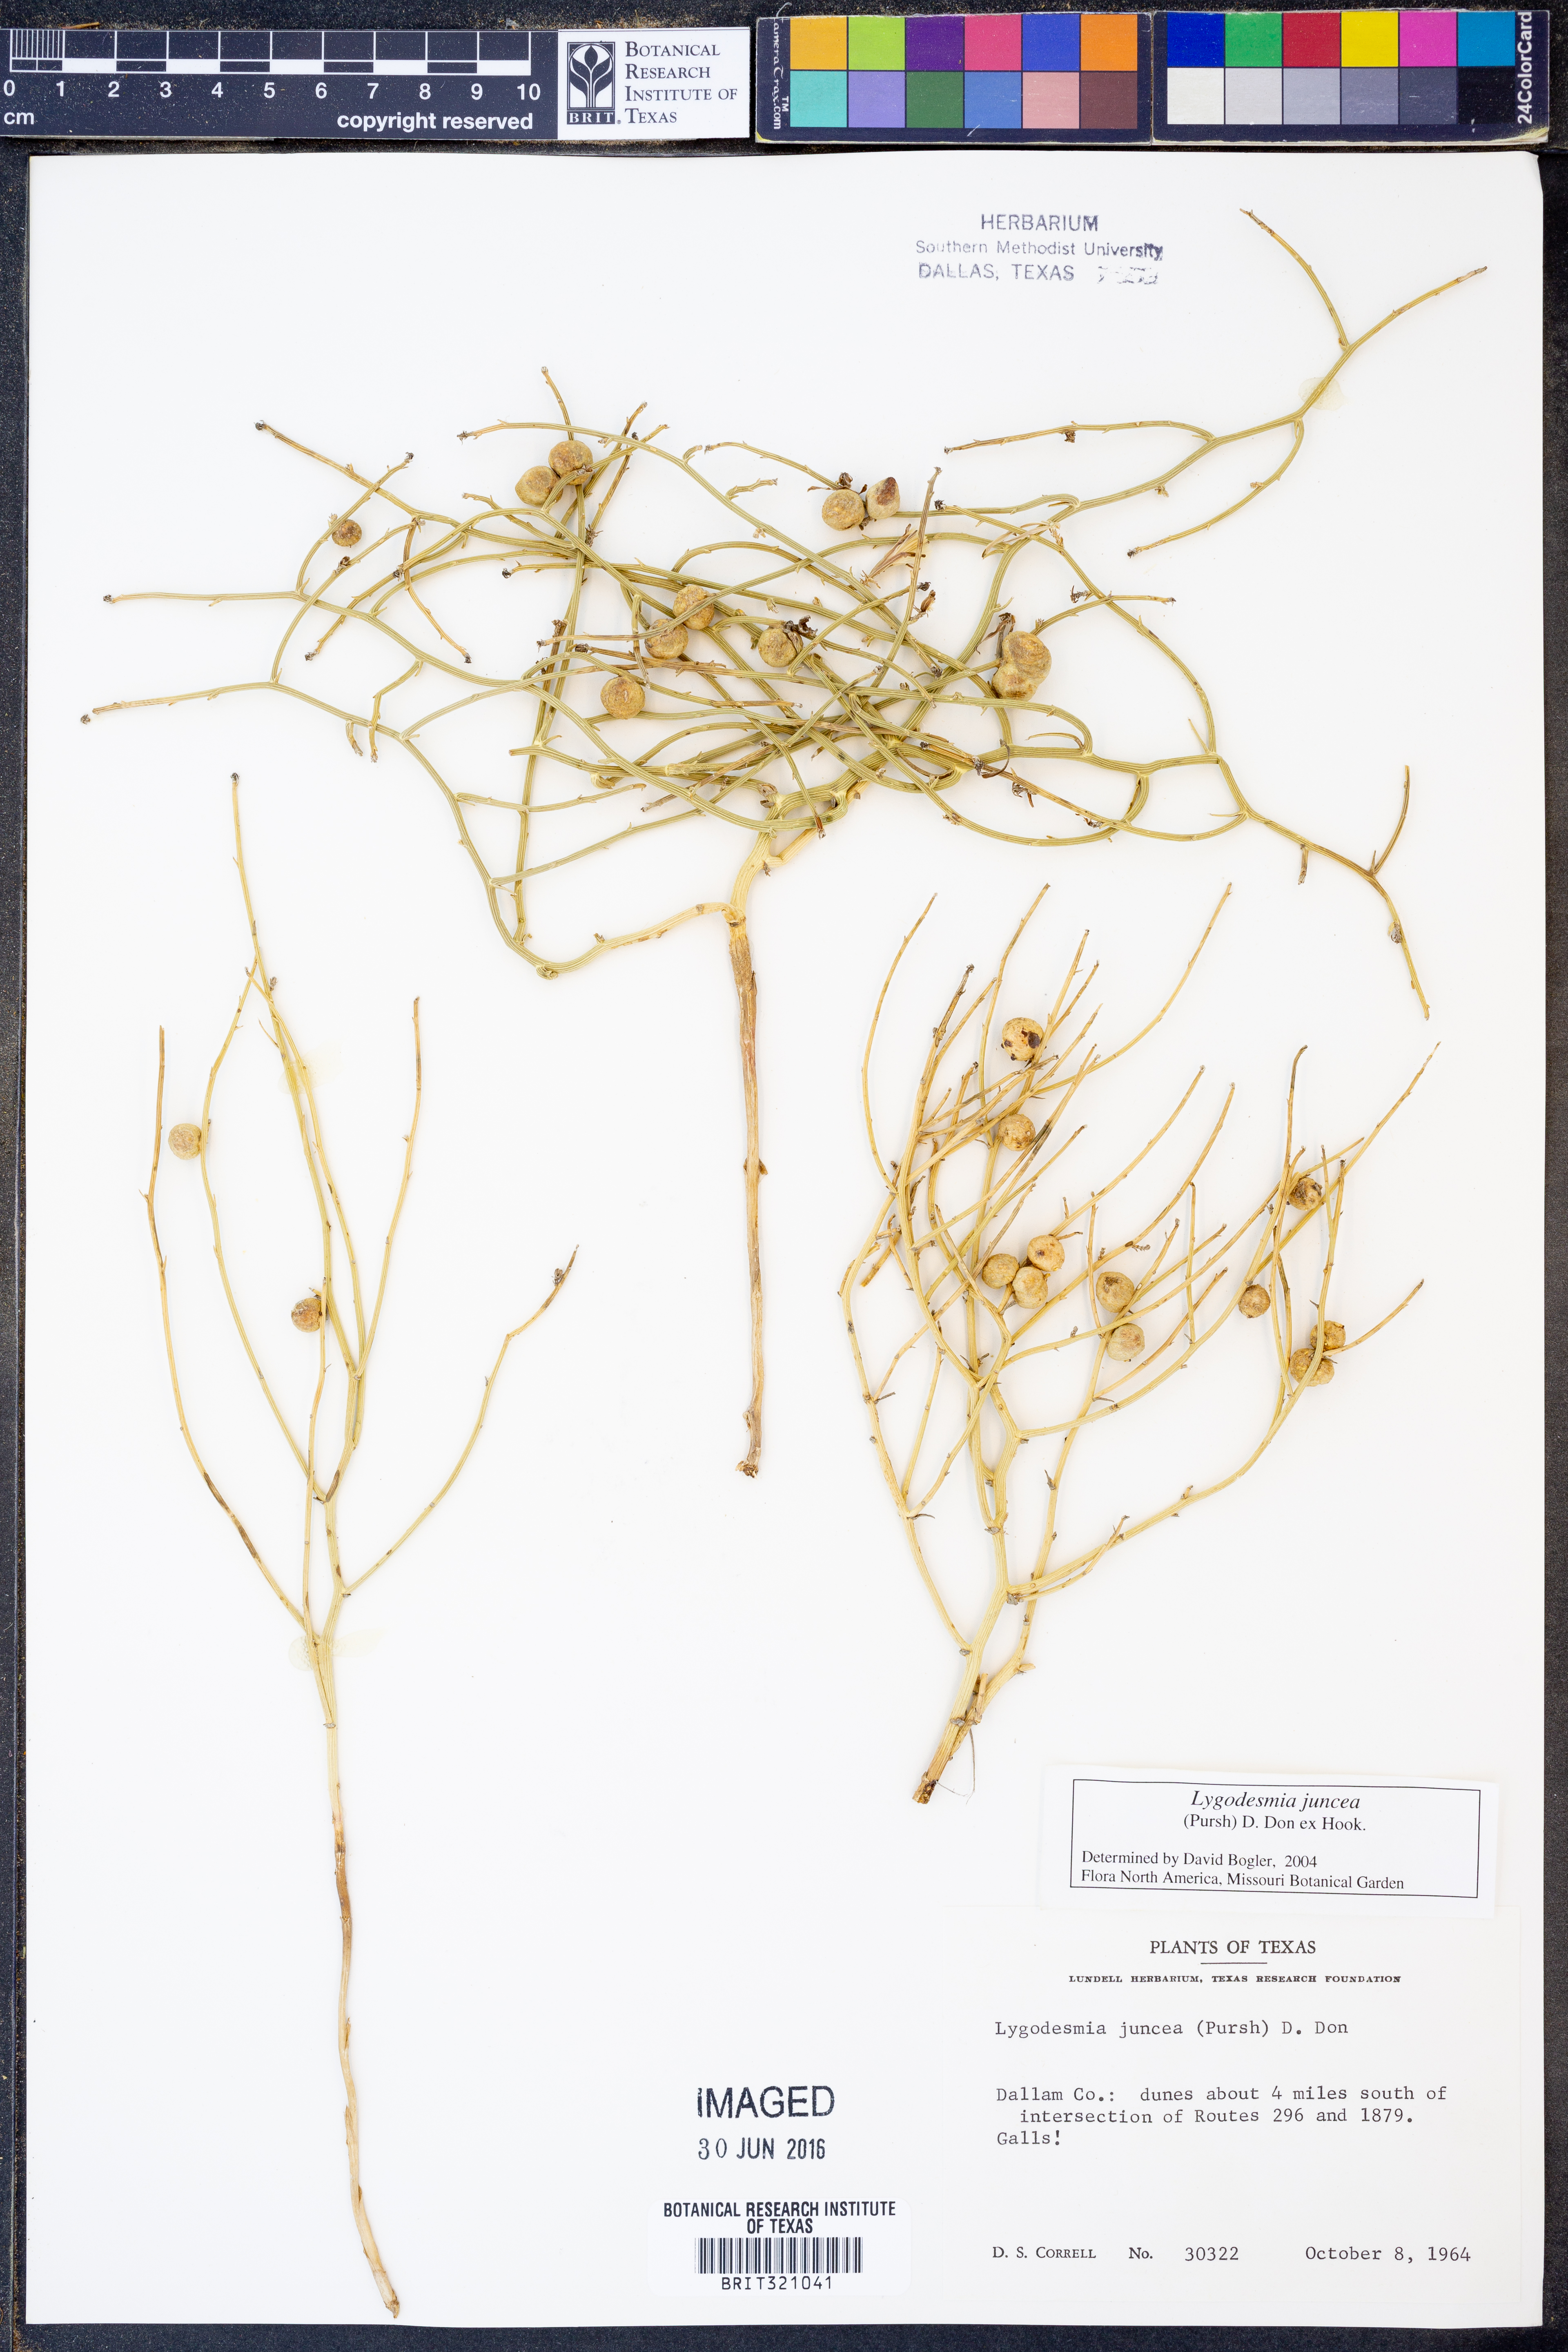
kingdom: Plantae
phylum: Tracheophyta
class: Magnoliopsida
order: Asterales
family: Asteraceae
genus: Lygodesmia
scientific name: Lygodesmia juncea
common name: Common skeletonweed
